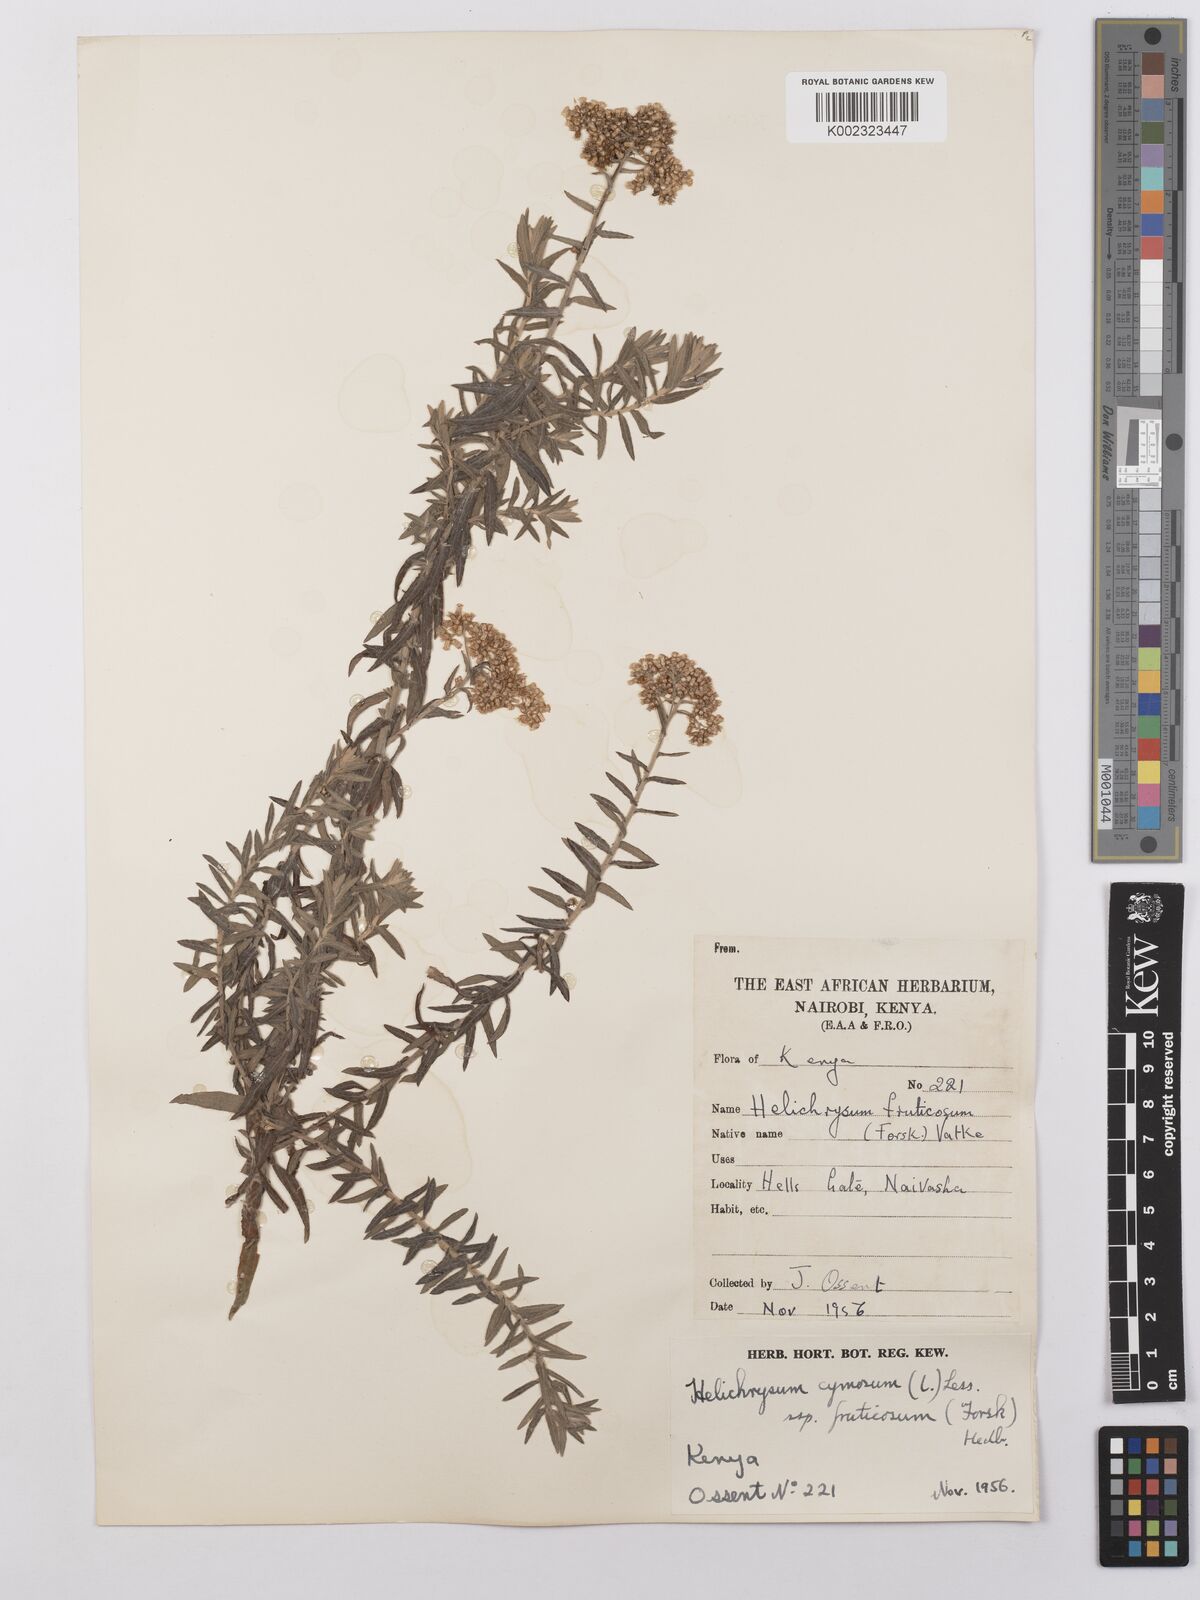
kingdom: Plantae
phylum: Tracheophyta
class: Magnoliopsida
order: Asterales
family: Asteraceae
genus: Helichrysum
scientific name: Helichrysum forskahlii
